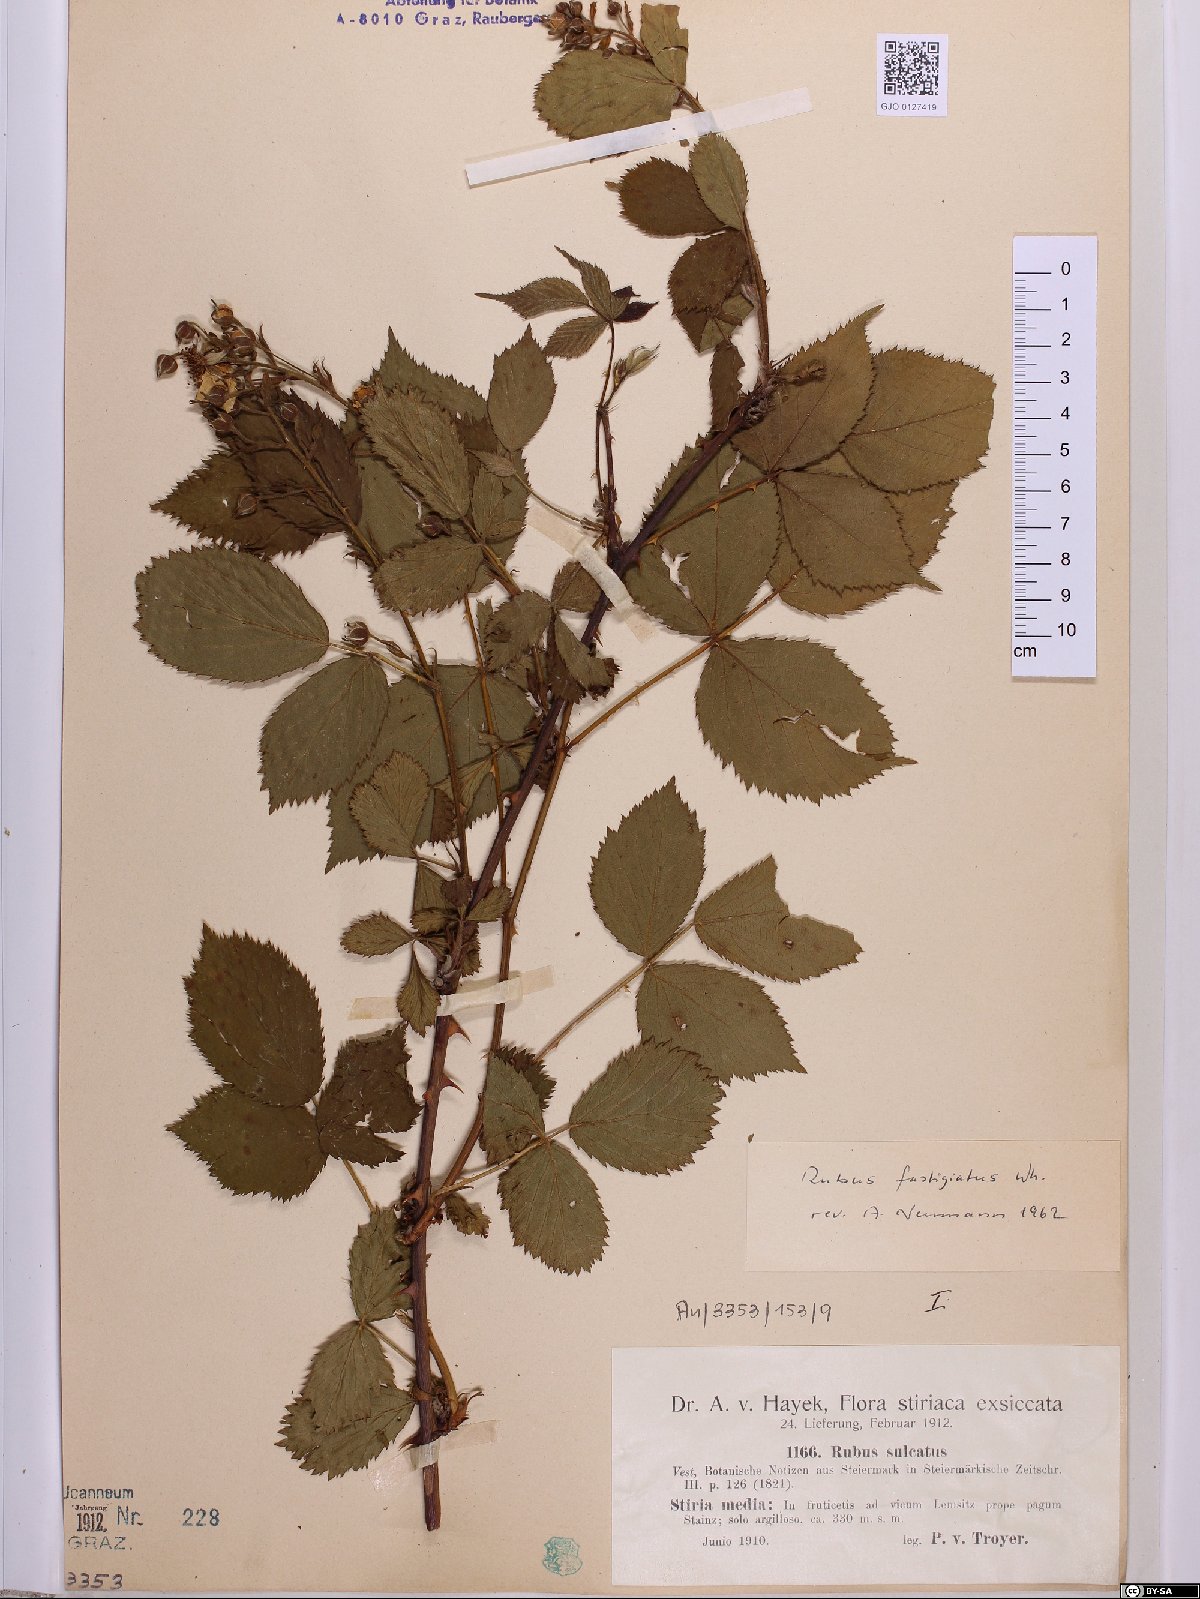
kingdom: Plantae
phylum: Tracheophyta
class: Magnoliopsida
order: Rosales
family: Rosaceae
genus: Rubus
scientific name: Rubus polonicus
